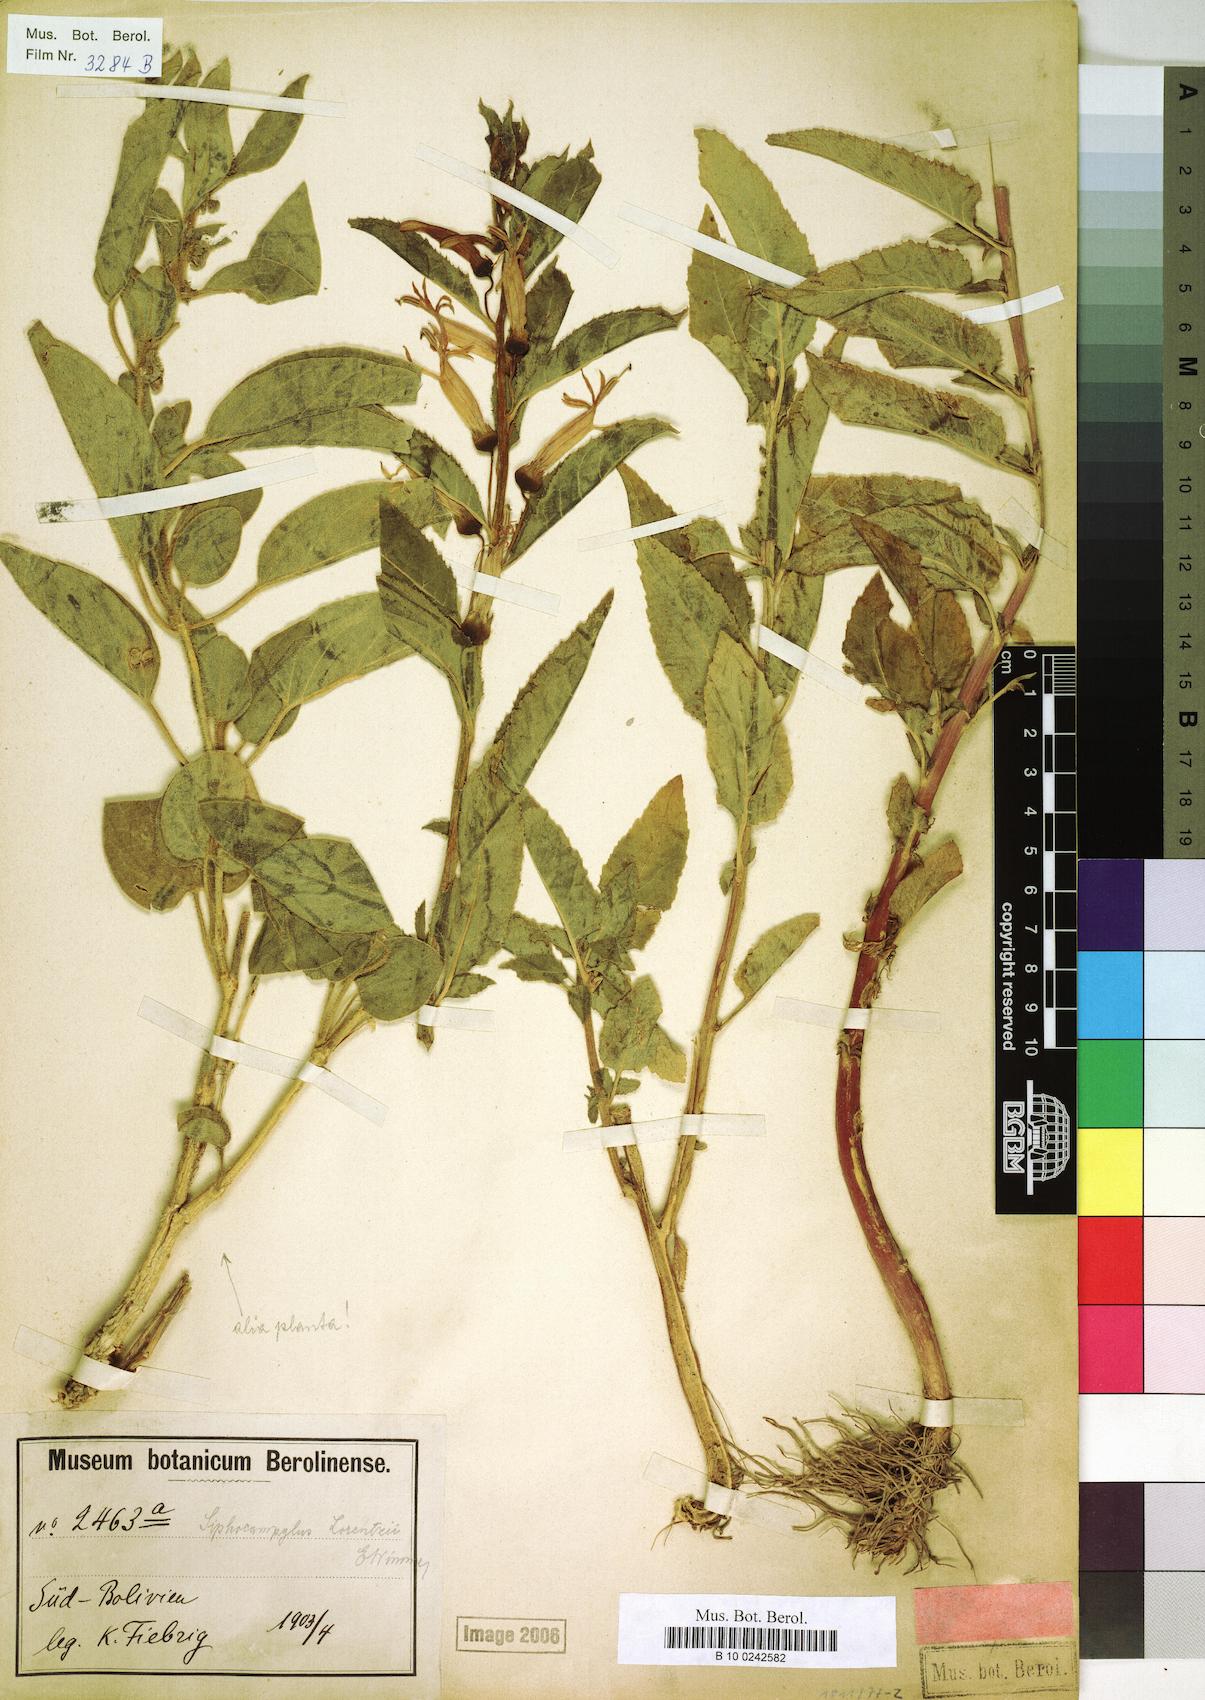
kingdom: Plantae
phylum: Tracheophyta
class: Magnoliopsida
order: Asterales
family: Campanulaceae
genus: Siphocampylus
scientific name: Siphocampylus nemoralis
